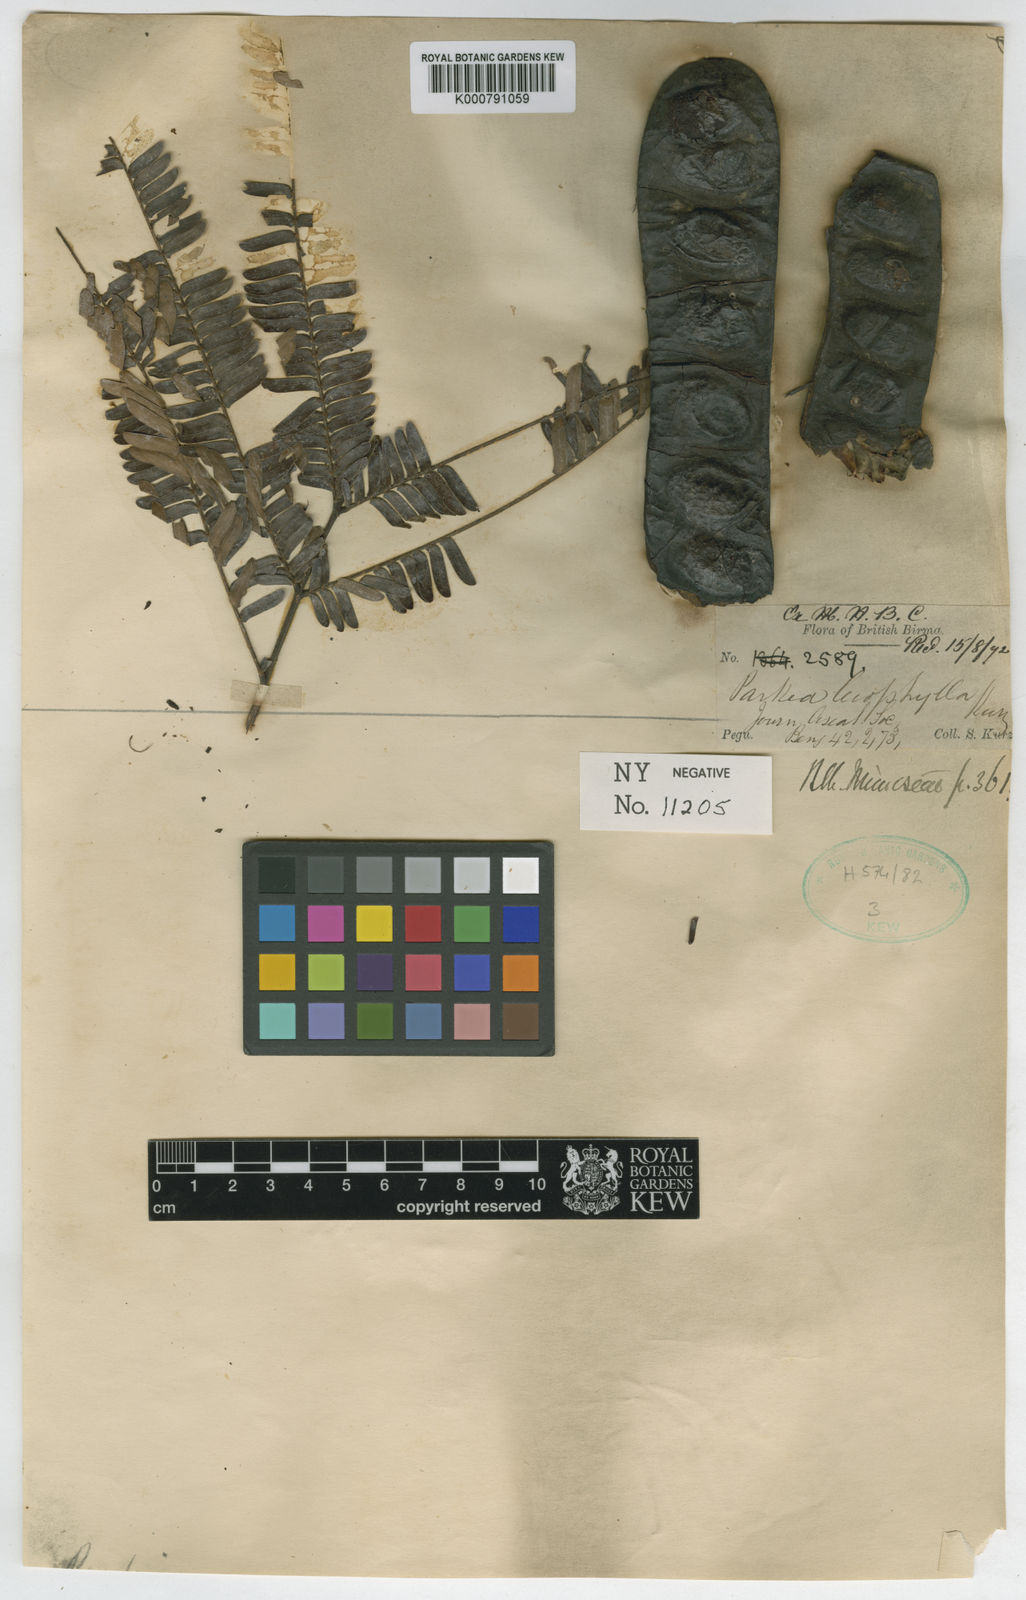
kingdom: Plantae
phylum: Tracheophyta
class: Magnoliopsida
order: Fabales
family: Fabaceae
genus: Parkia
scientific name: Parkia leiophylla
